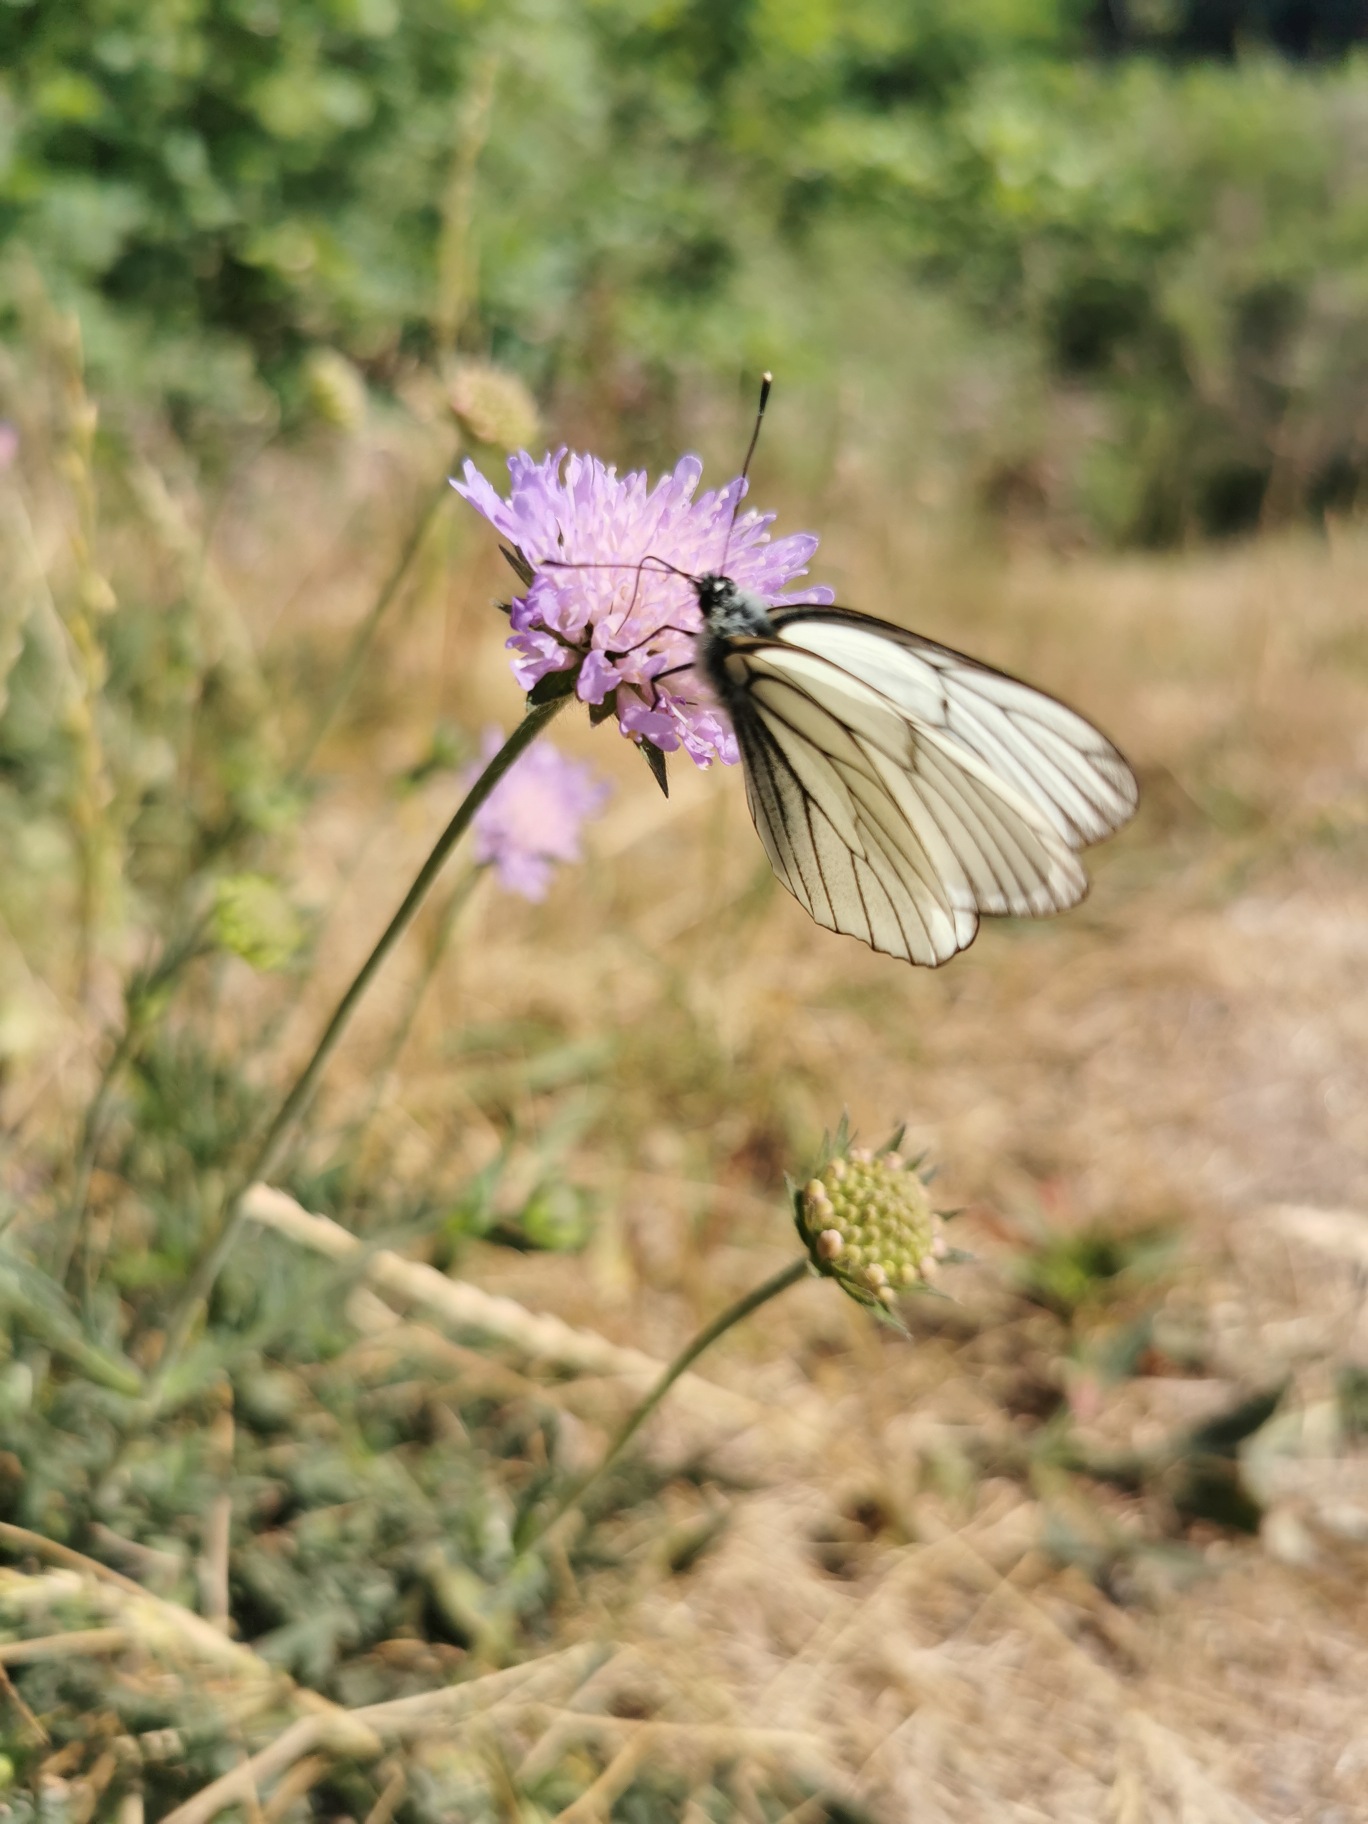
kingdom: Animalia
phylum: Arthropoda
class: Insecta
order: Lepidoptera
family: Pieridae
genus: Aporia
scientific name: Aporia crataegi
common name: Sortåret hvidvinge
